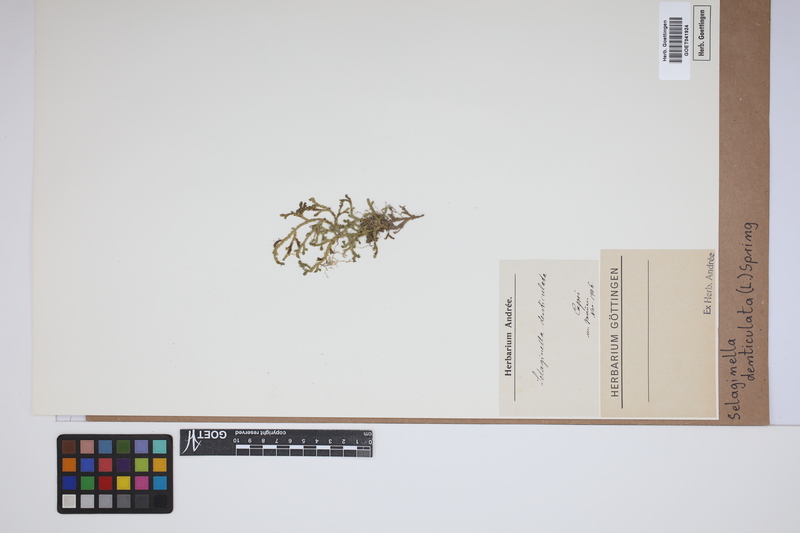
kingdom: Plantae
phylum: Tracheophyta
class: Lycopodiopsida
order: Selaginellales
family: Selaginellaceae
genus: Selaginella
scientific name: Selaginella denticulata
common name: Toothed-leaved clubmoss
